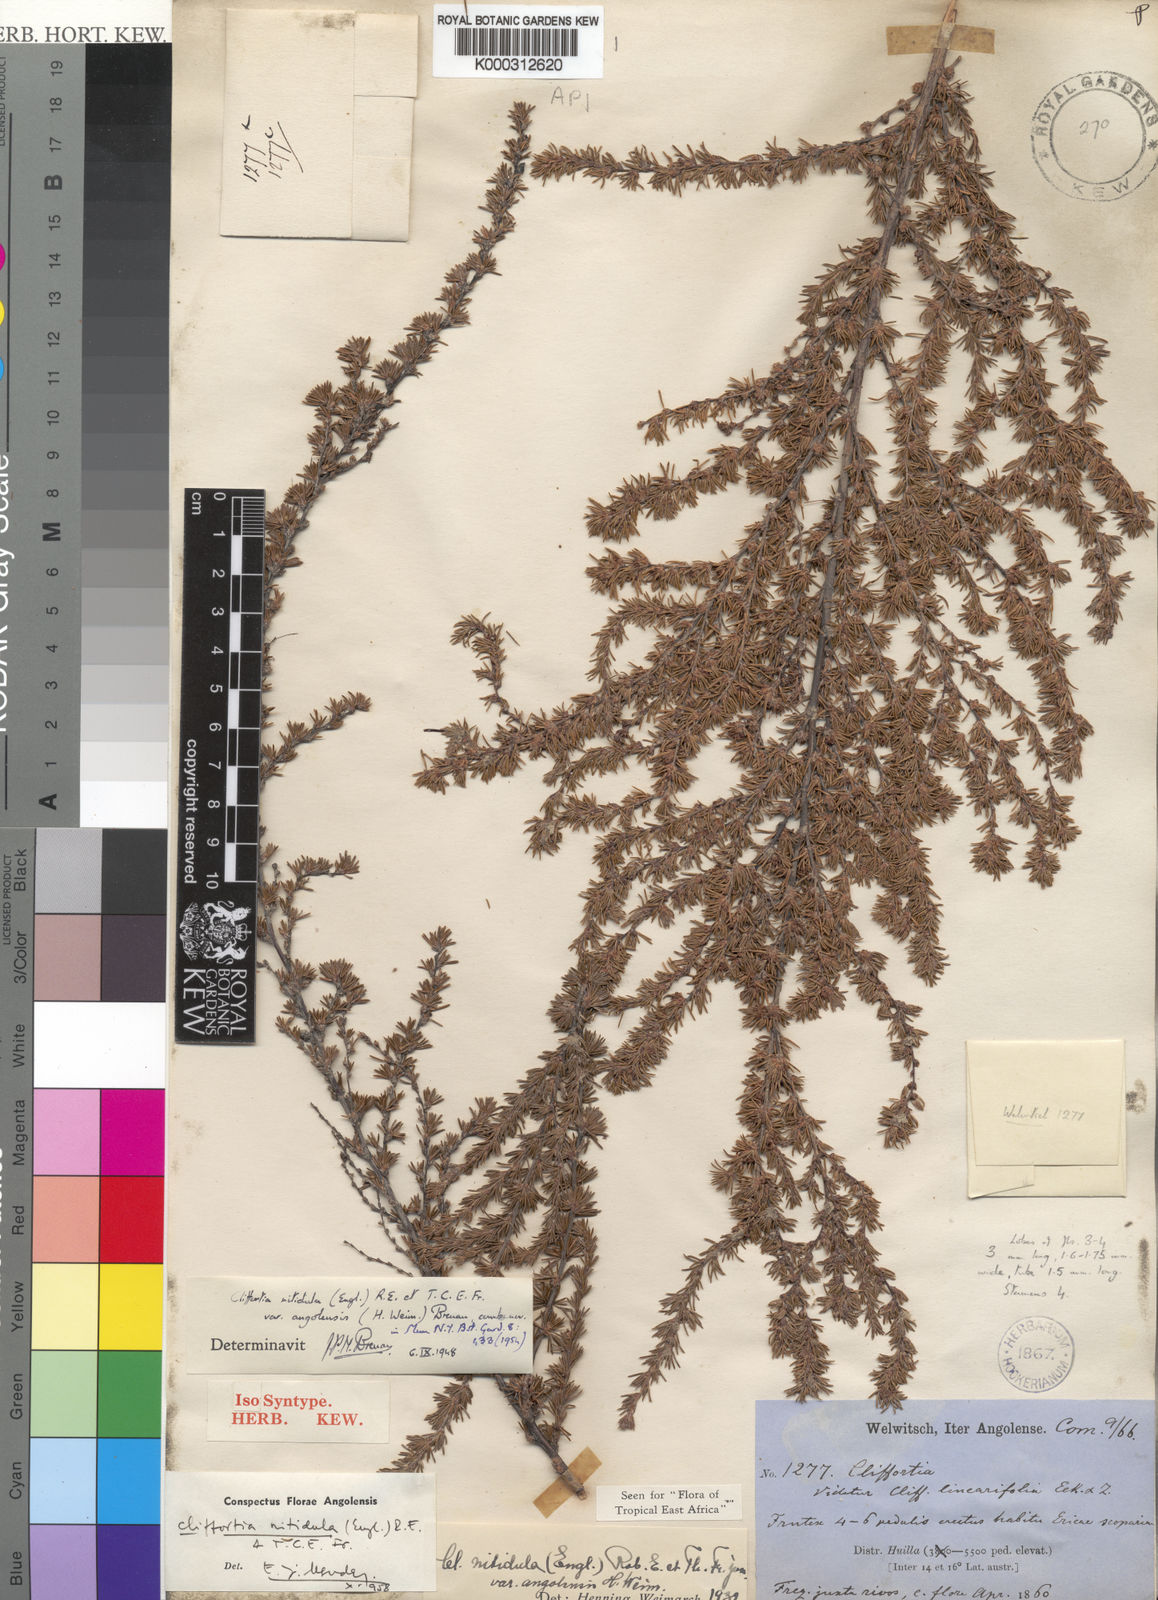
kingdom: Plantae
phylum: Tracheophyta
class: Magnoliopsida
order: Rosales
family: Rosaceae
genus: Cliffortia
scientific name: Cliffortia nitidula
